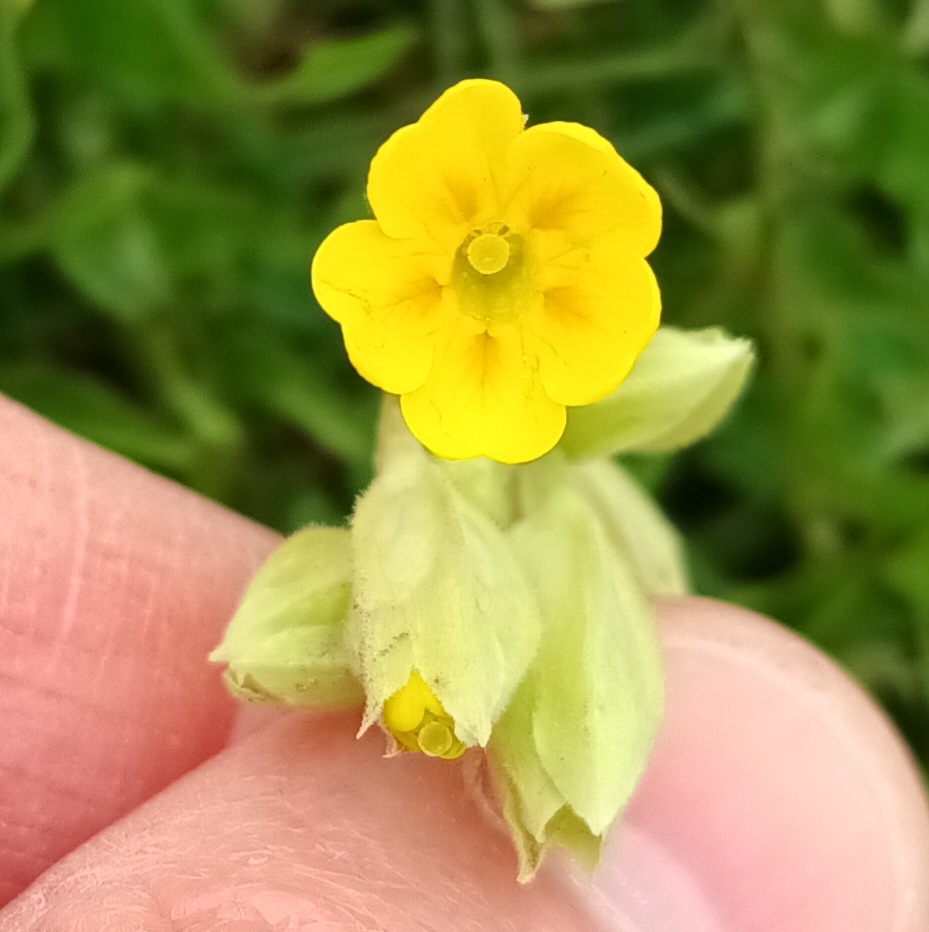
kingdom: Plantae
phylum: Tracheophyta
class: Magnoliopsida
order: Ericales
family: Primulaceae
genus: Primula
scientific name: Primula veris
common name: Hulkravet kodriver
